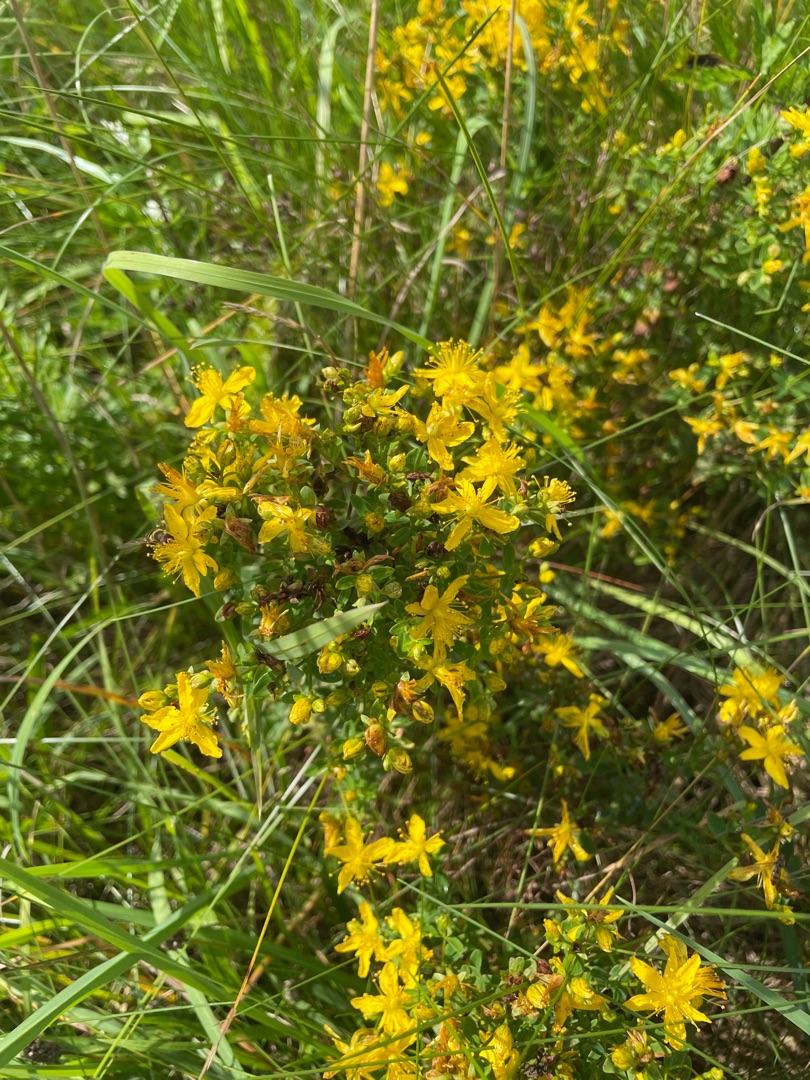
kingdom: Plantae
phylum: Tracheophyta
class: Magnoliopsida
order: Malpighiales
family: Hypericaceae
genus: Hypericum
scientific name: Hypericum perforatum
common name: Prikbladet perikon
